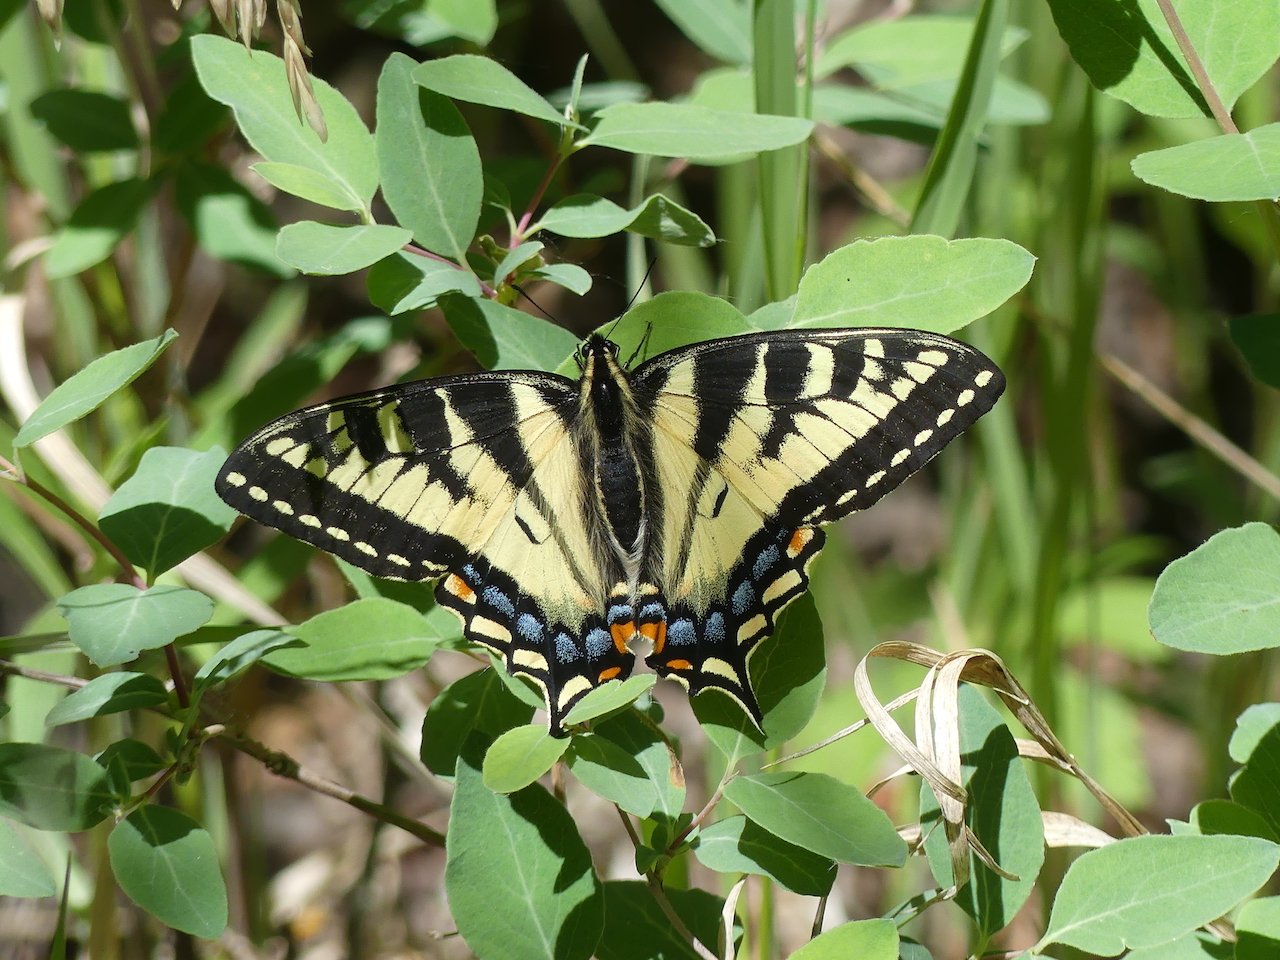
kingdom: Animalia
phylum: Arthropoda
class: Insecta
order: Lepidoptera
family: Papilionidae
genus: Pterourus
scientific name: Pterourus rutulus
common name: Western Tiger Swallowtail
